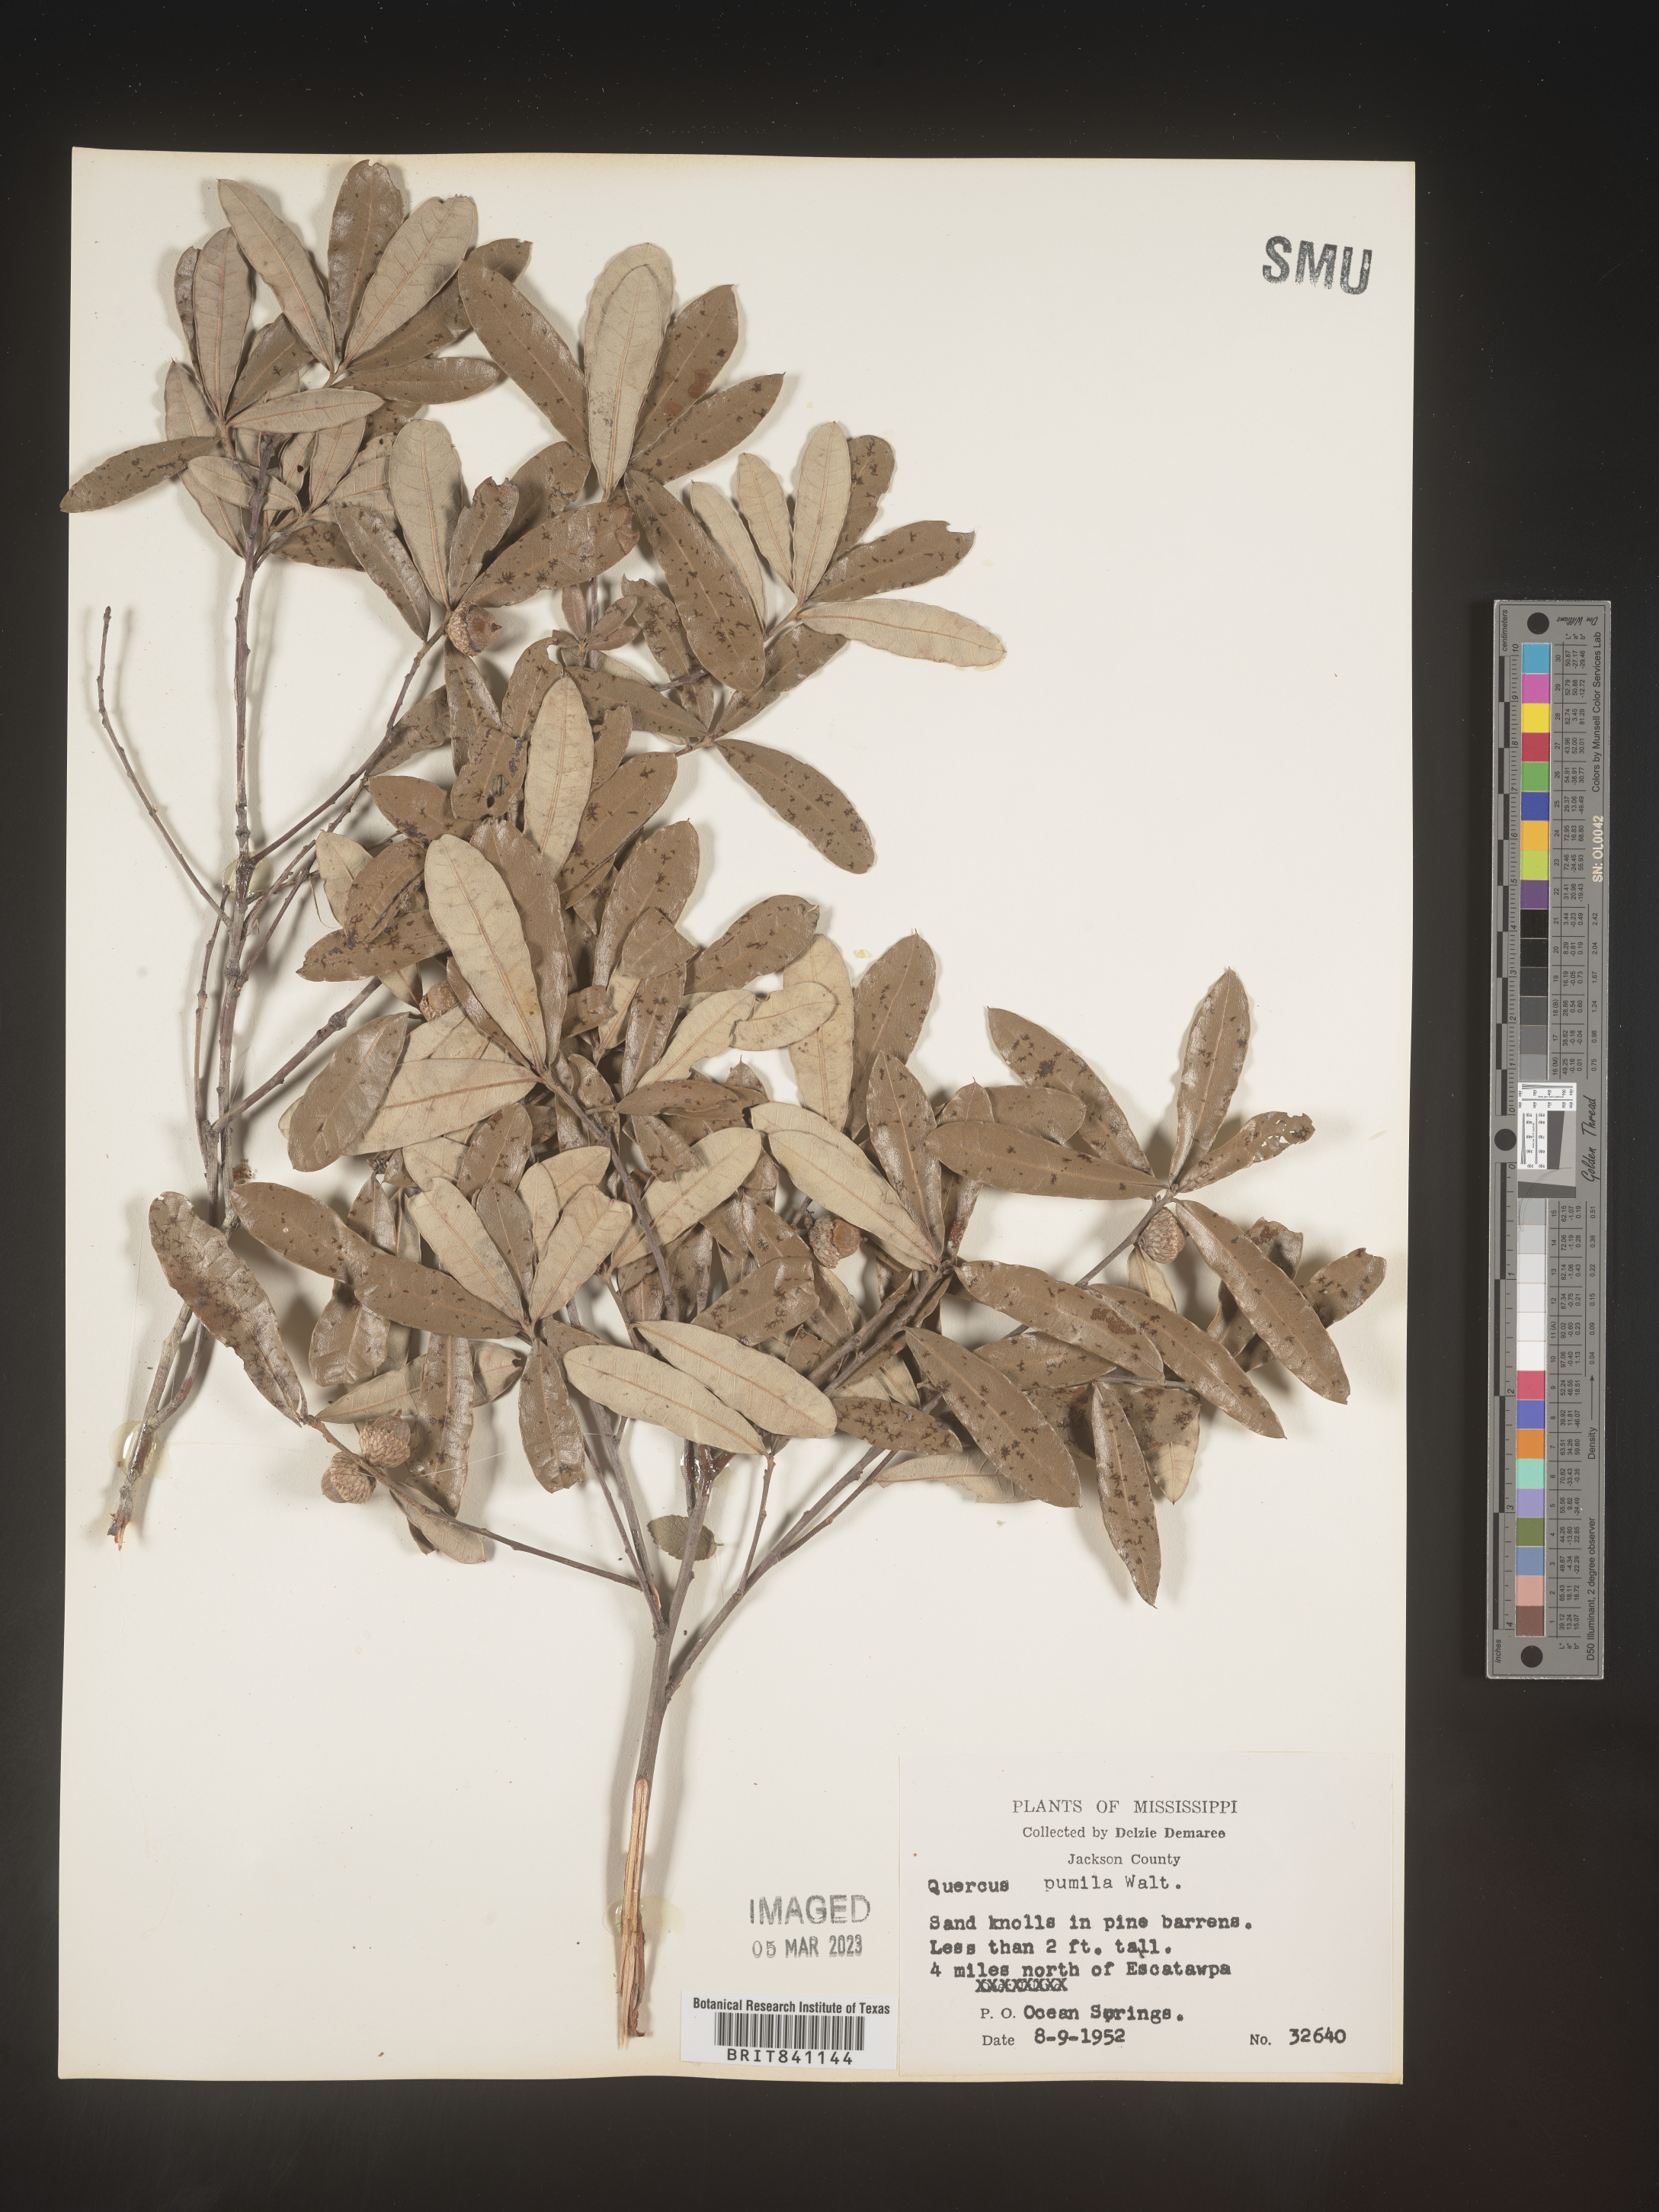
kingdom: Plantae
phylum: Tracheophyta
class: Magnoliopsida
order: Fagales
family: Fagaceae
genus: Quercus
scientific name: Quercus pumila
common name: Runner oak
